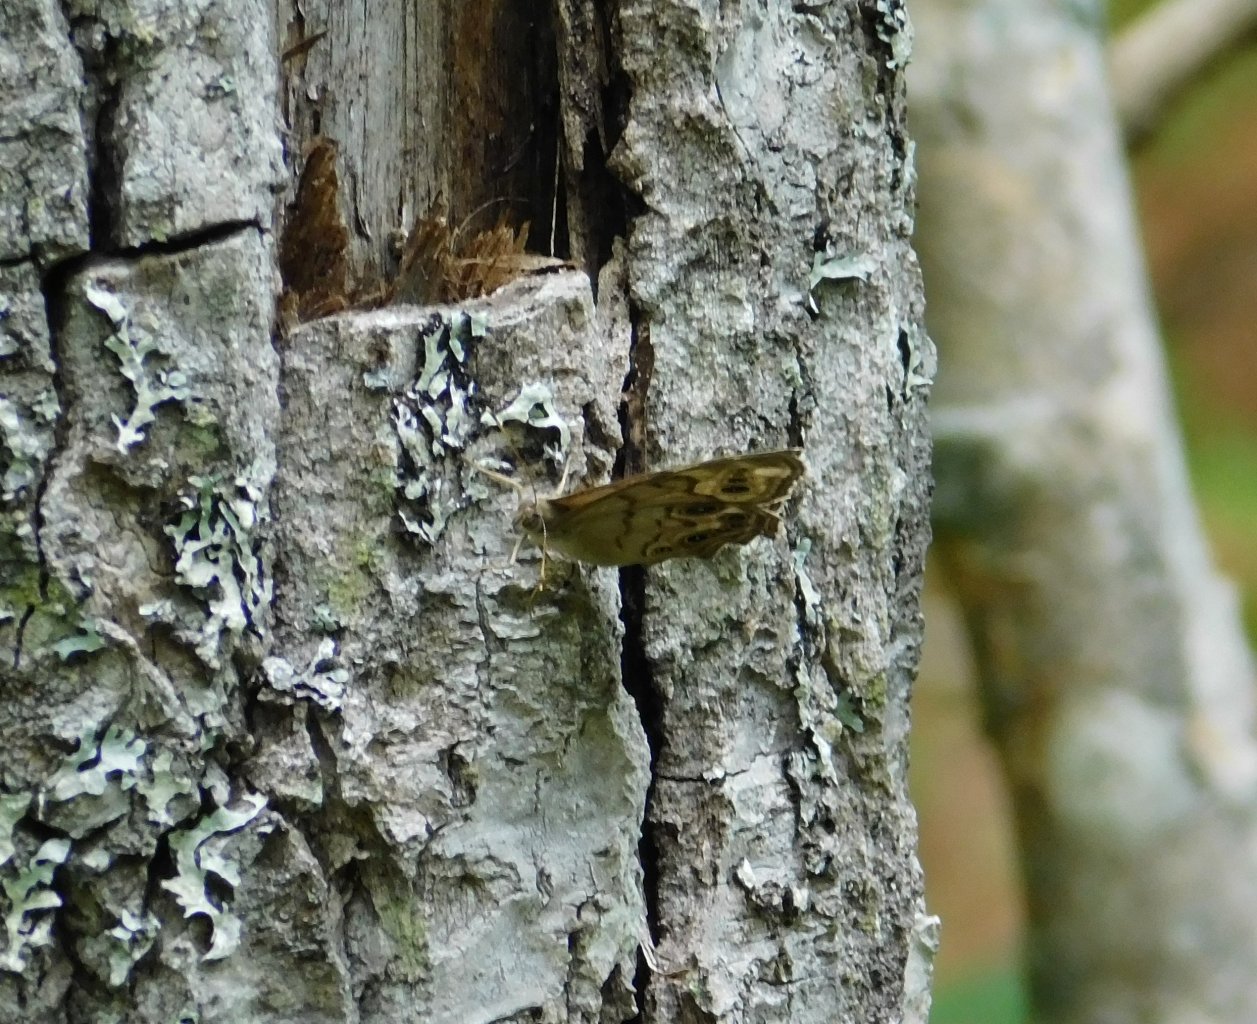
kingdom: Animalia
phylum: Arthropoda
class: Insecta
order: Lepidoptera
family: Nymphalidae
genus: Lethe
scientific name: Lethe anthedon
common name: Northern Pearly-Eye
